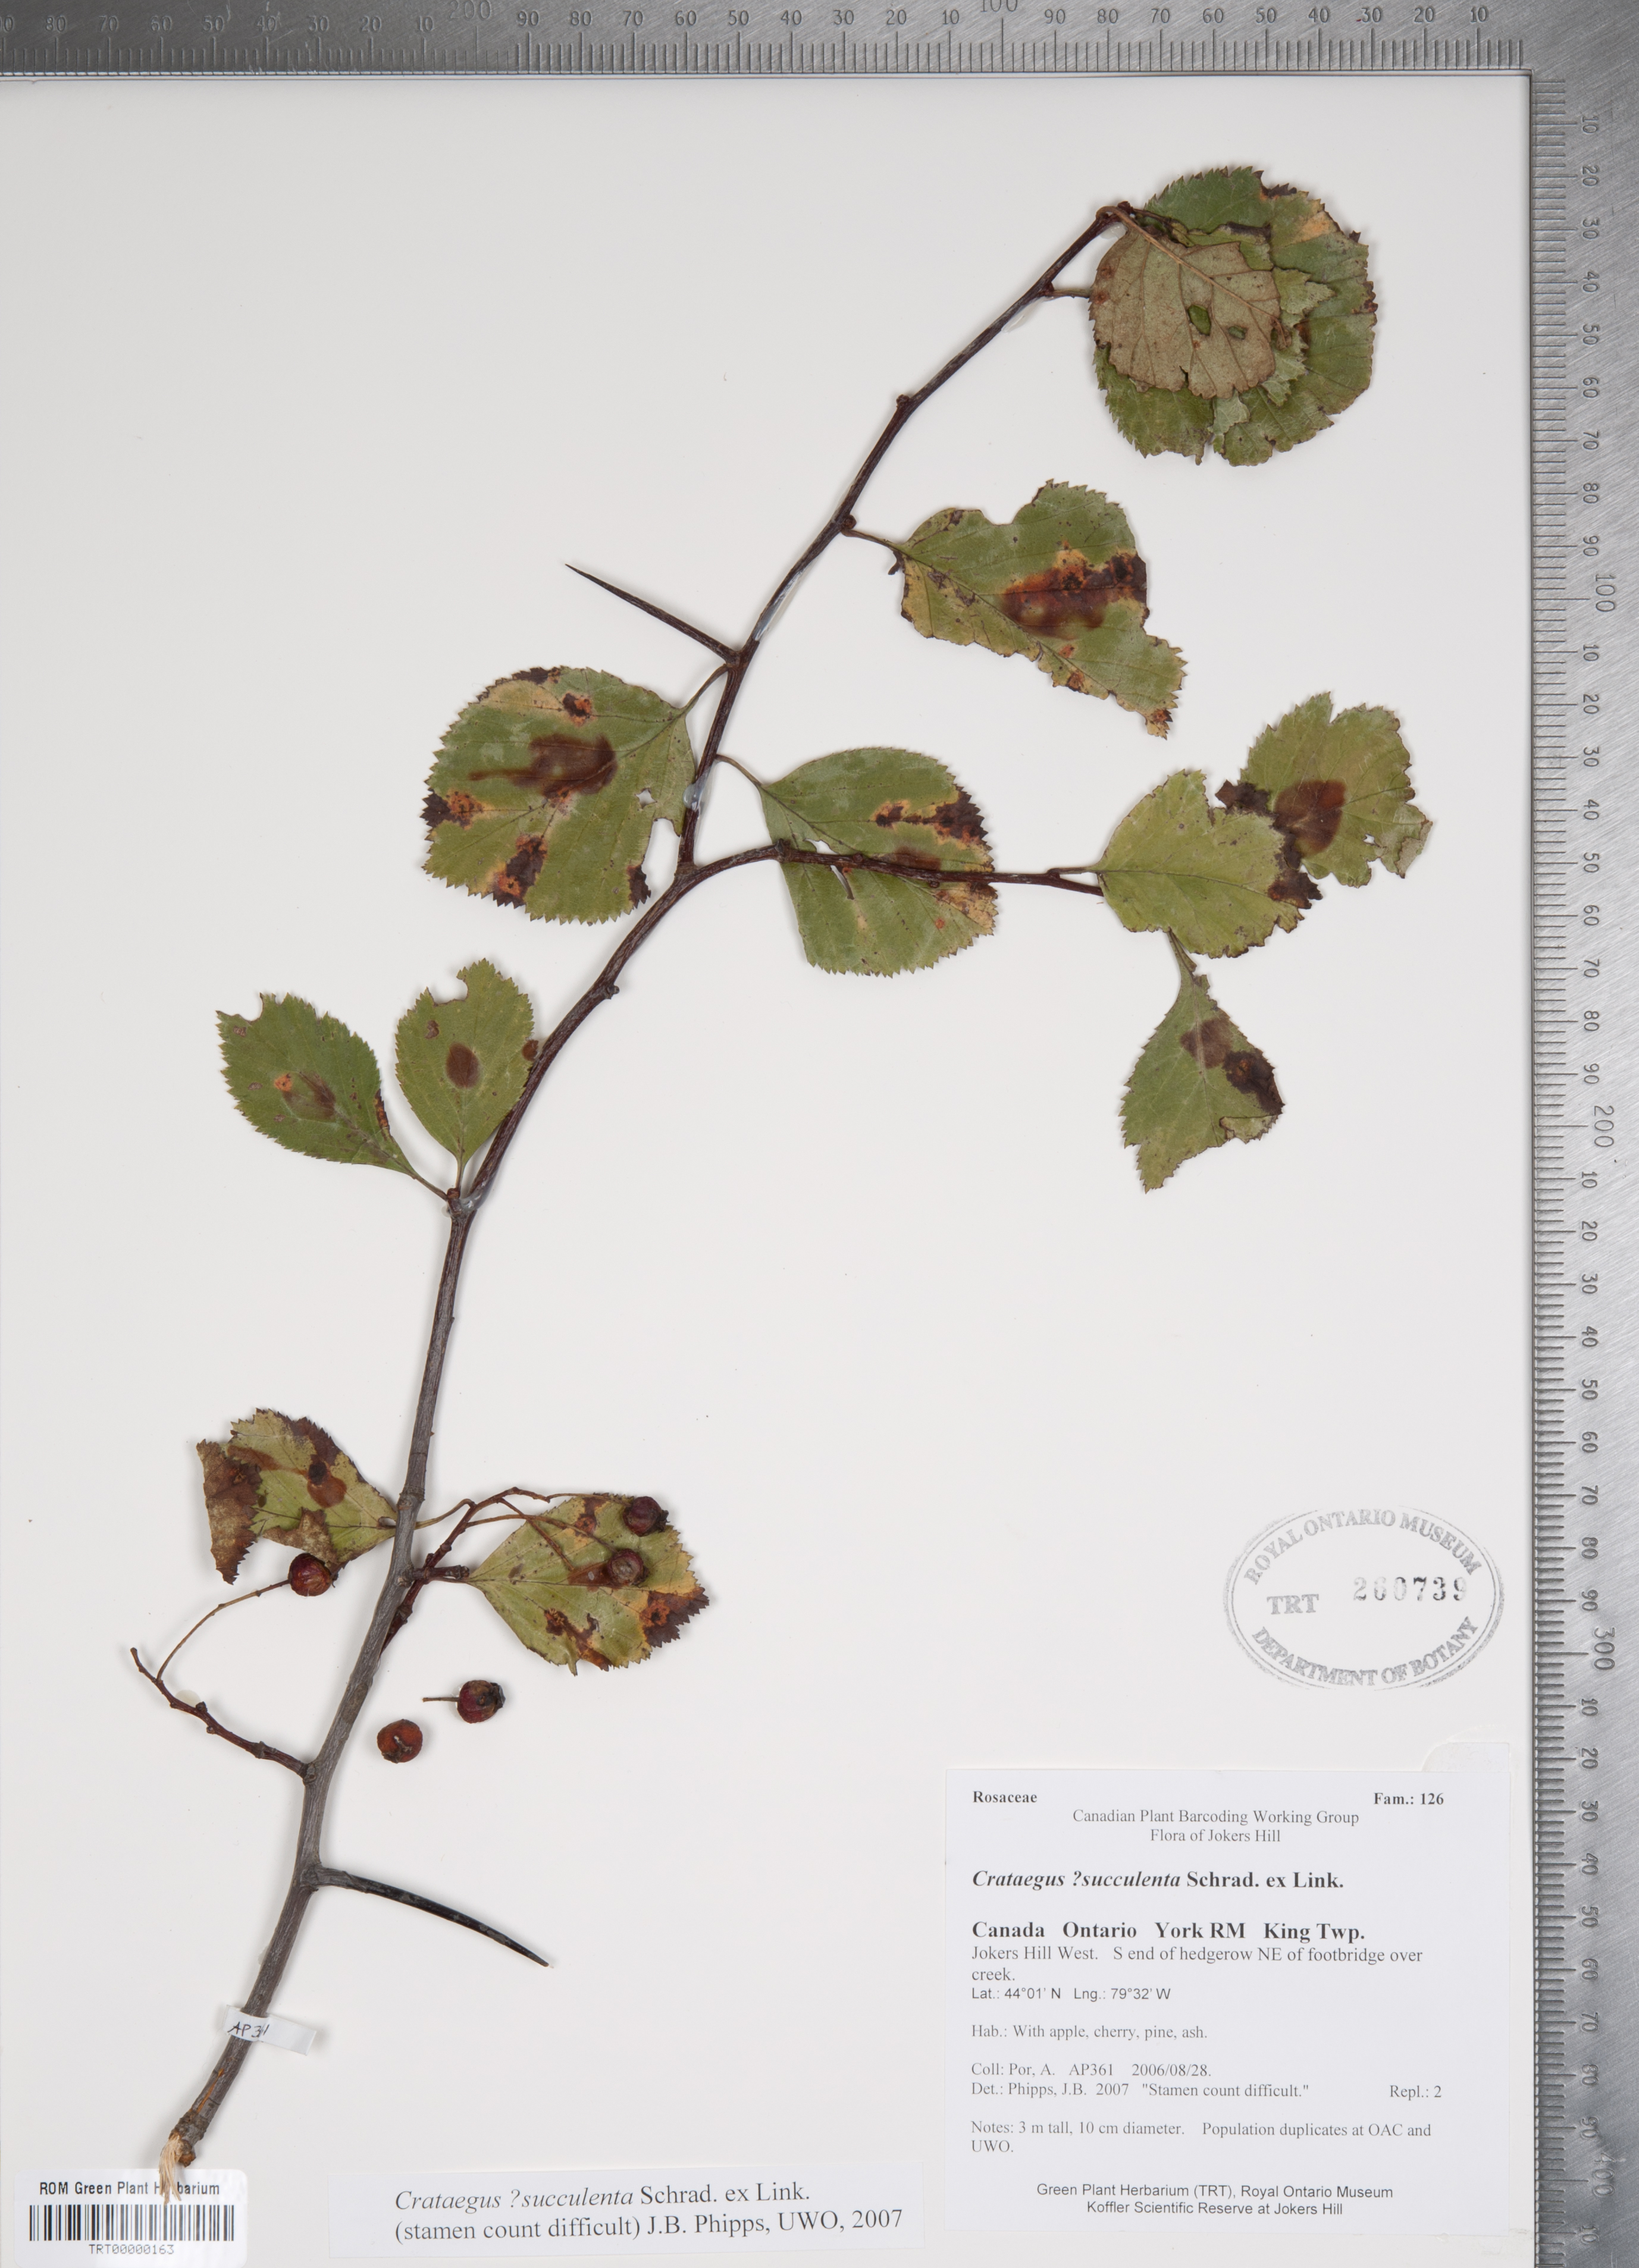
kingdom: Plantae
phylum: Tracheophyta
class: Magnoliopsida
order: Rosales
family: Rosaceae
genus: Crataegus
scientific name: Crataegus succulenta
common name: Fleshy hawthorn
